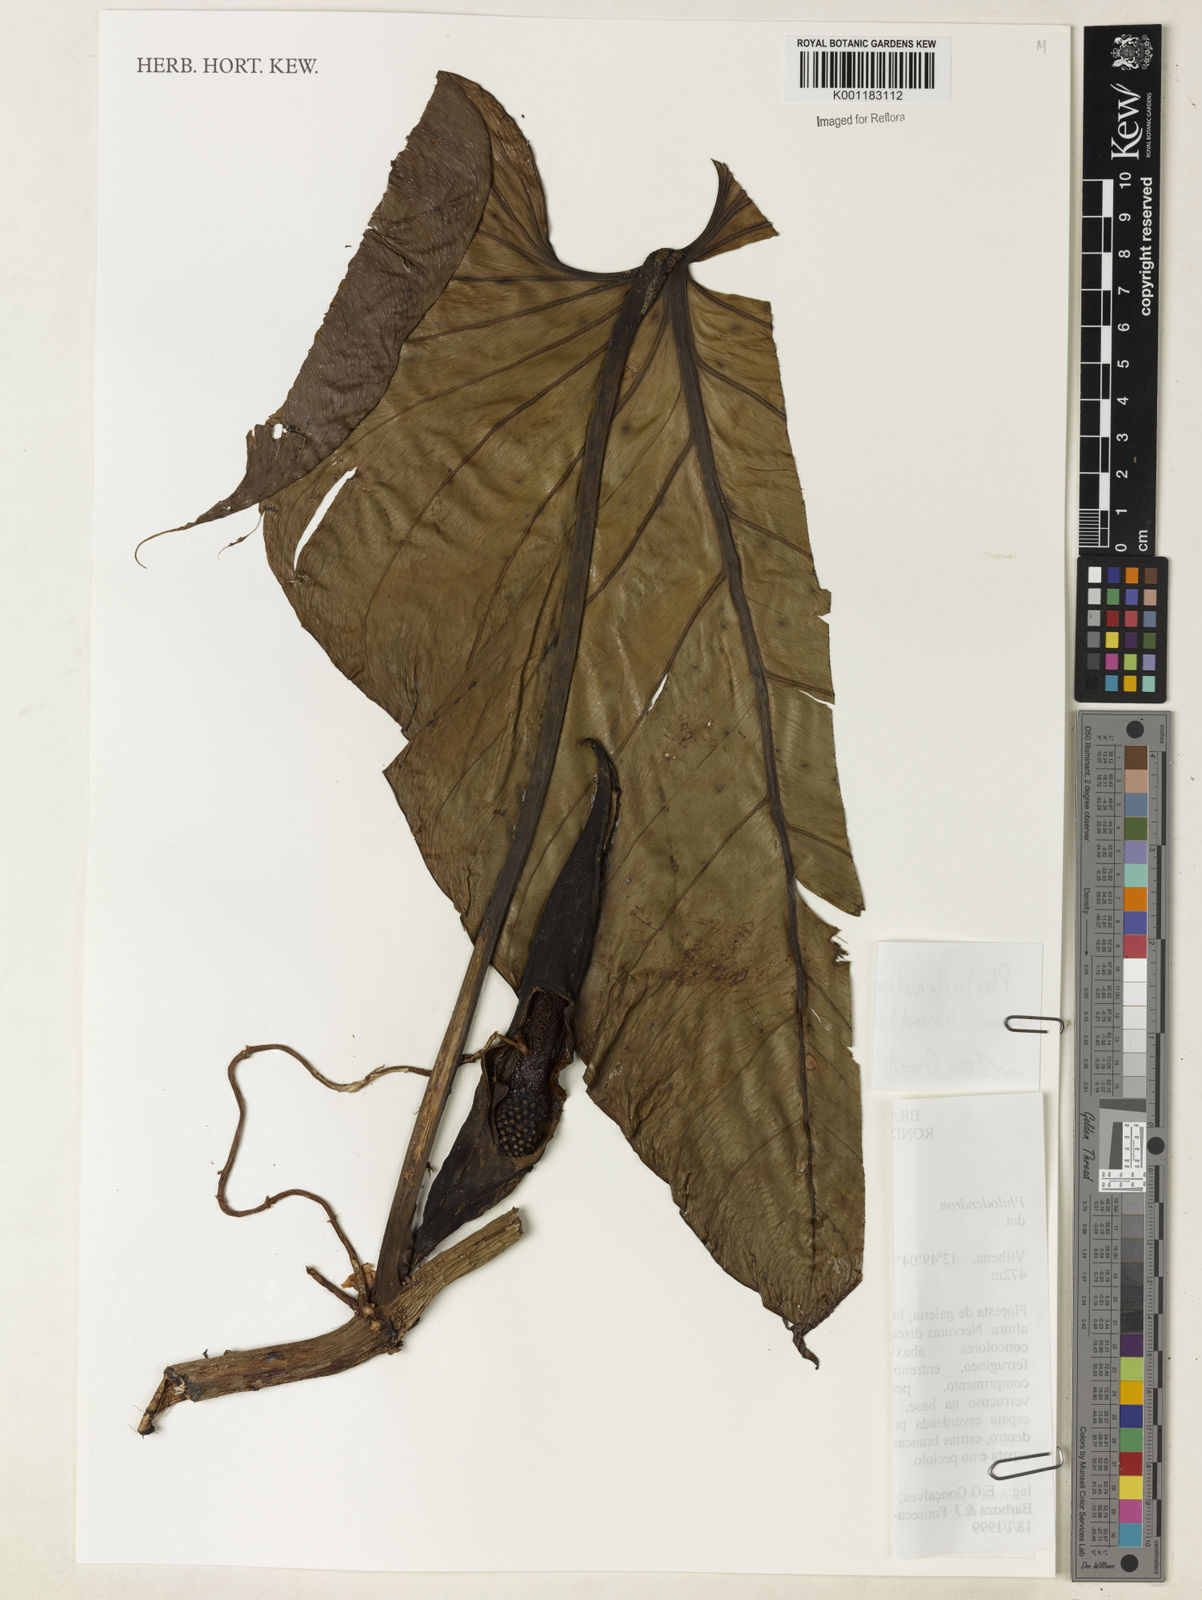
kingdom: Plantae
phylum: Tracheophyta
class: Liliopsida
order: Alismatales
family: Araceae
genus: Philodendron
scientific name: Philodendron brandtianum
